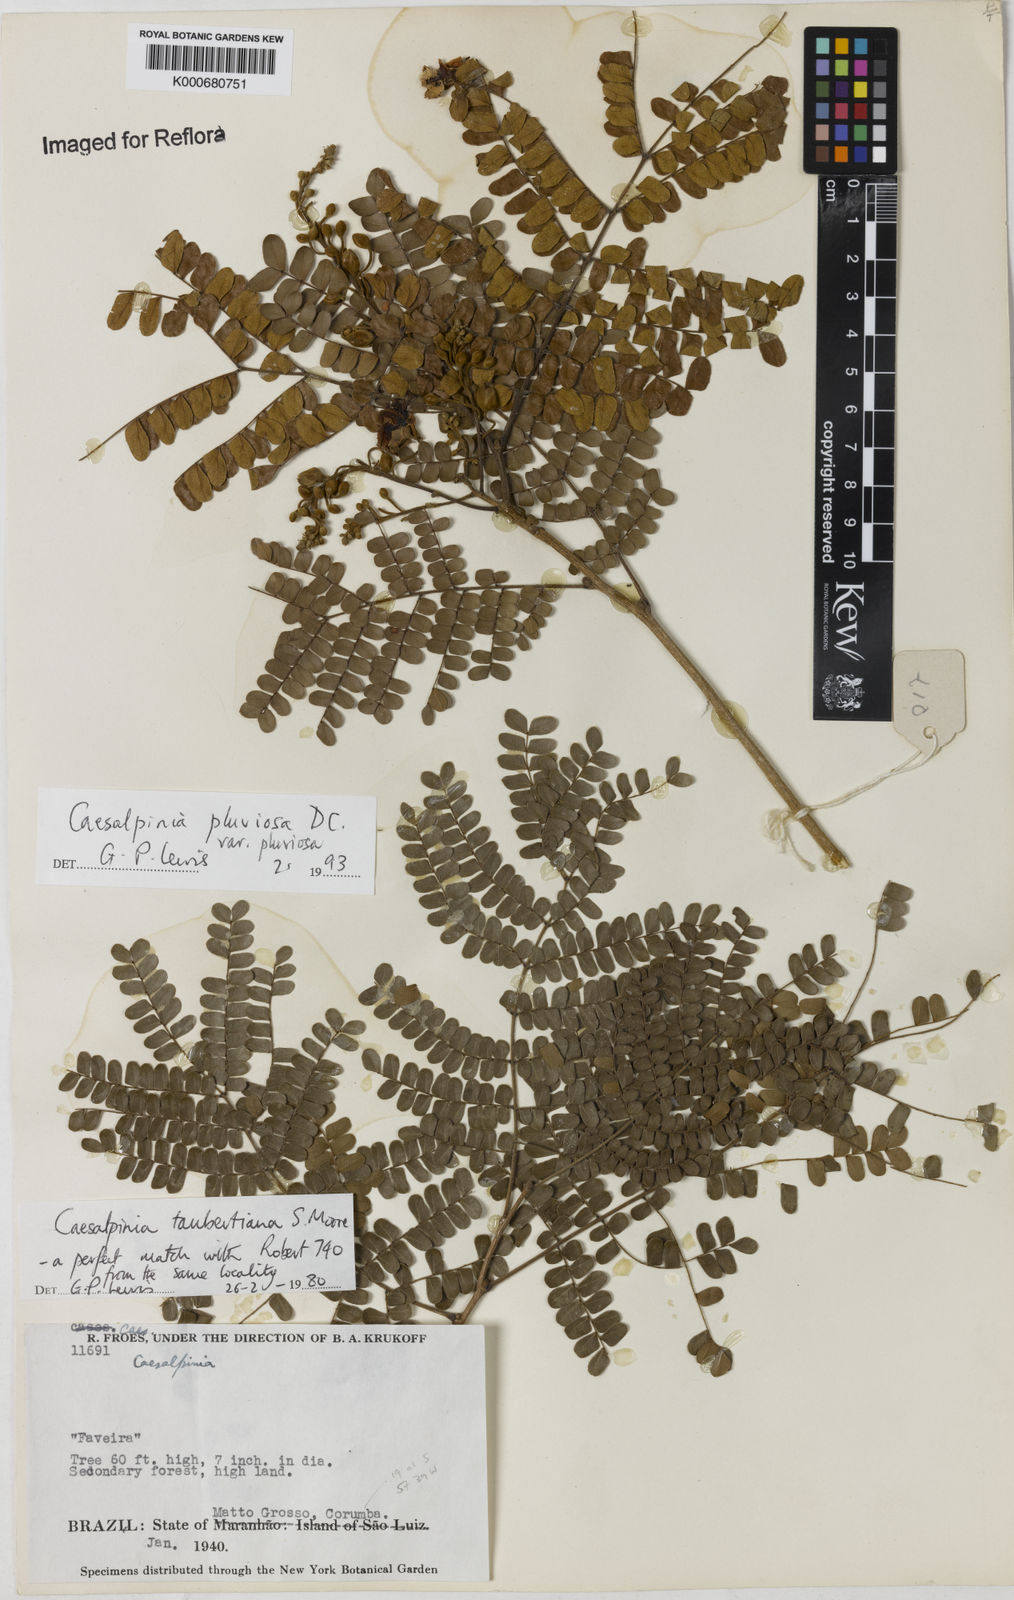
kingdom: Plantae
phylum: Tracheophyta
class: Magnoliopsida
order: Fabales
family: Fabaceae
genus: Cenostigma
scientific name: Cenostigma pluviosum
